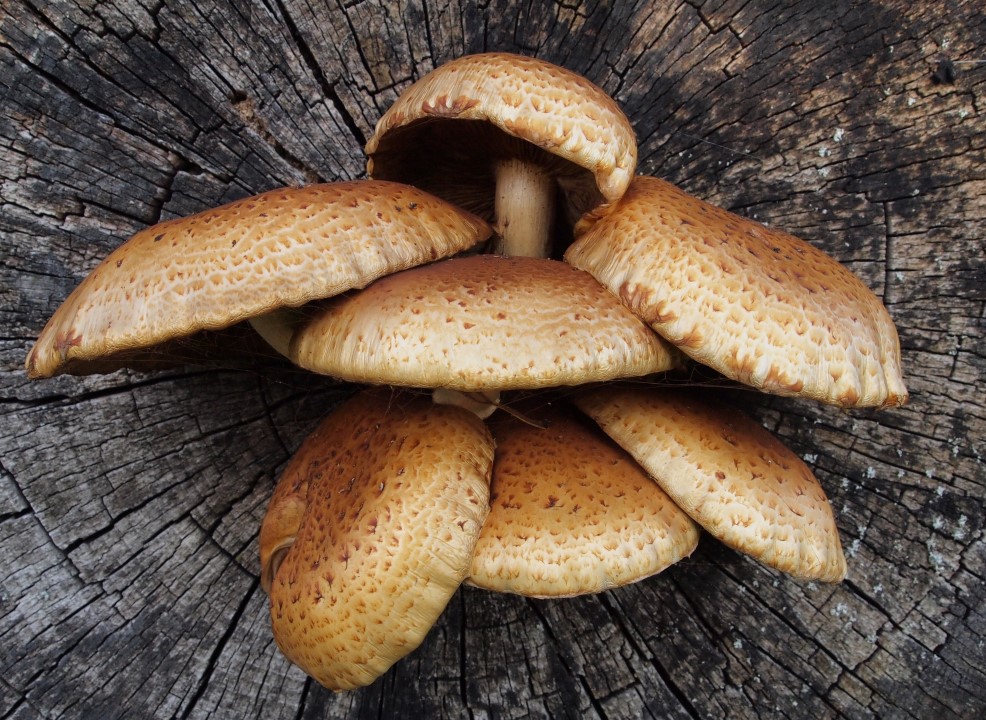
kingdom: Fungi
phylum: Basidiomycota
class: Agaricomycetes
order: Agaricales
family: Strophariaceae
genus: Pholiota
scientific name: Pholiota adiposa
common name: højtsiddende skælhat
